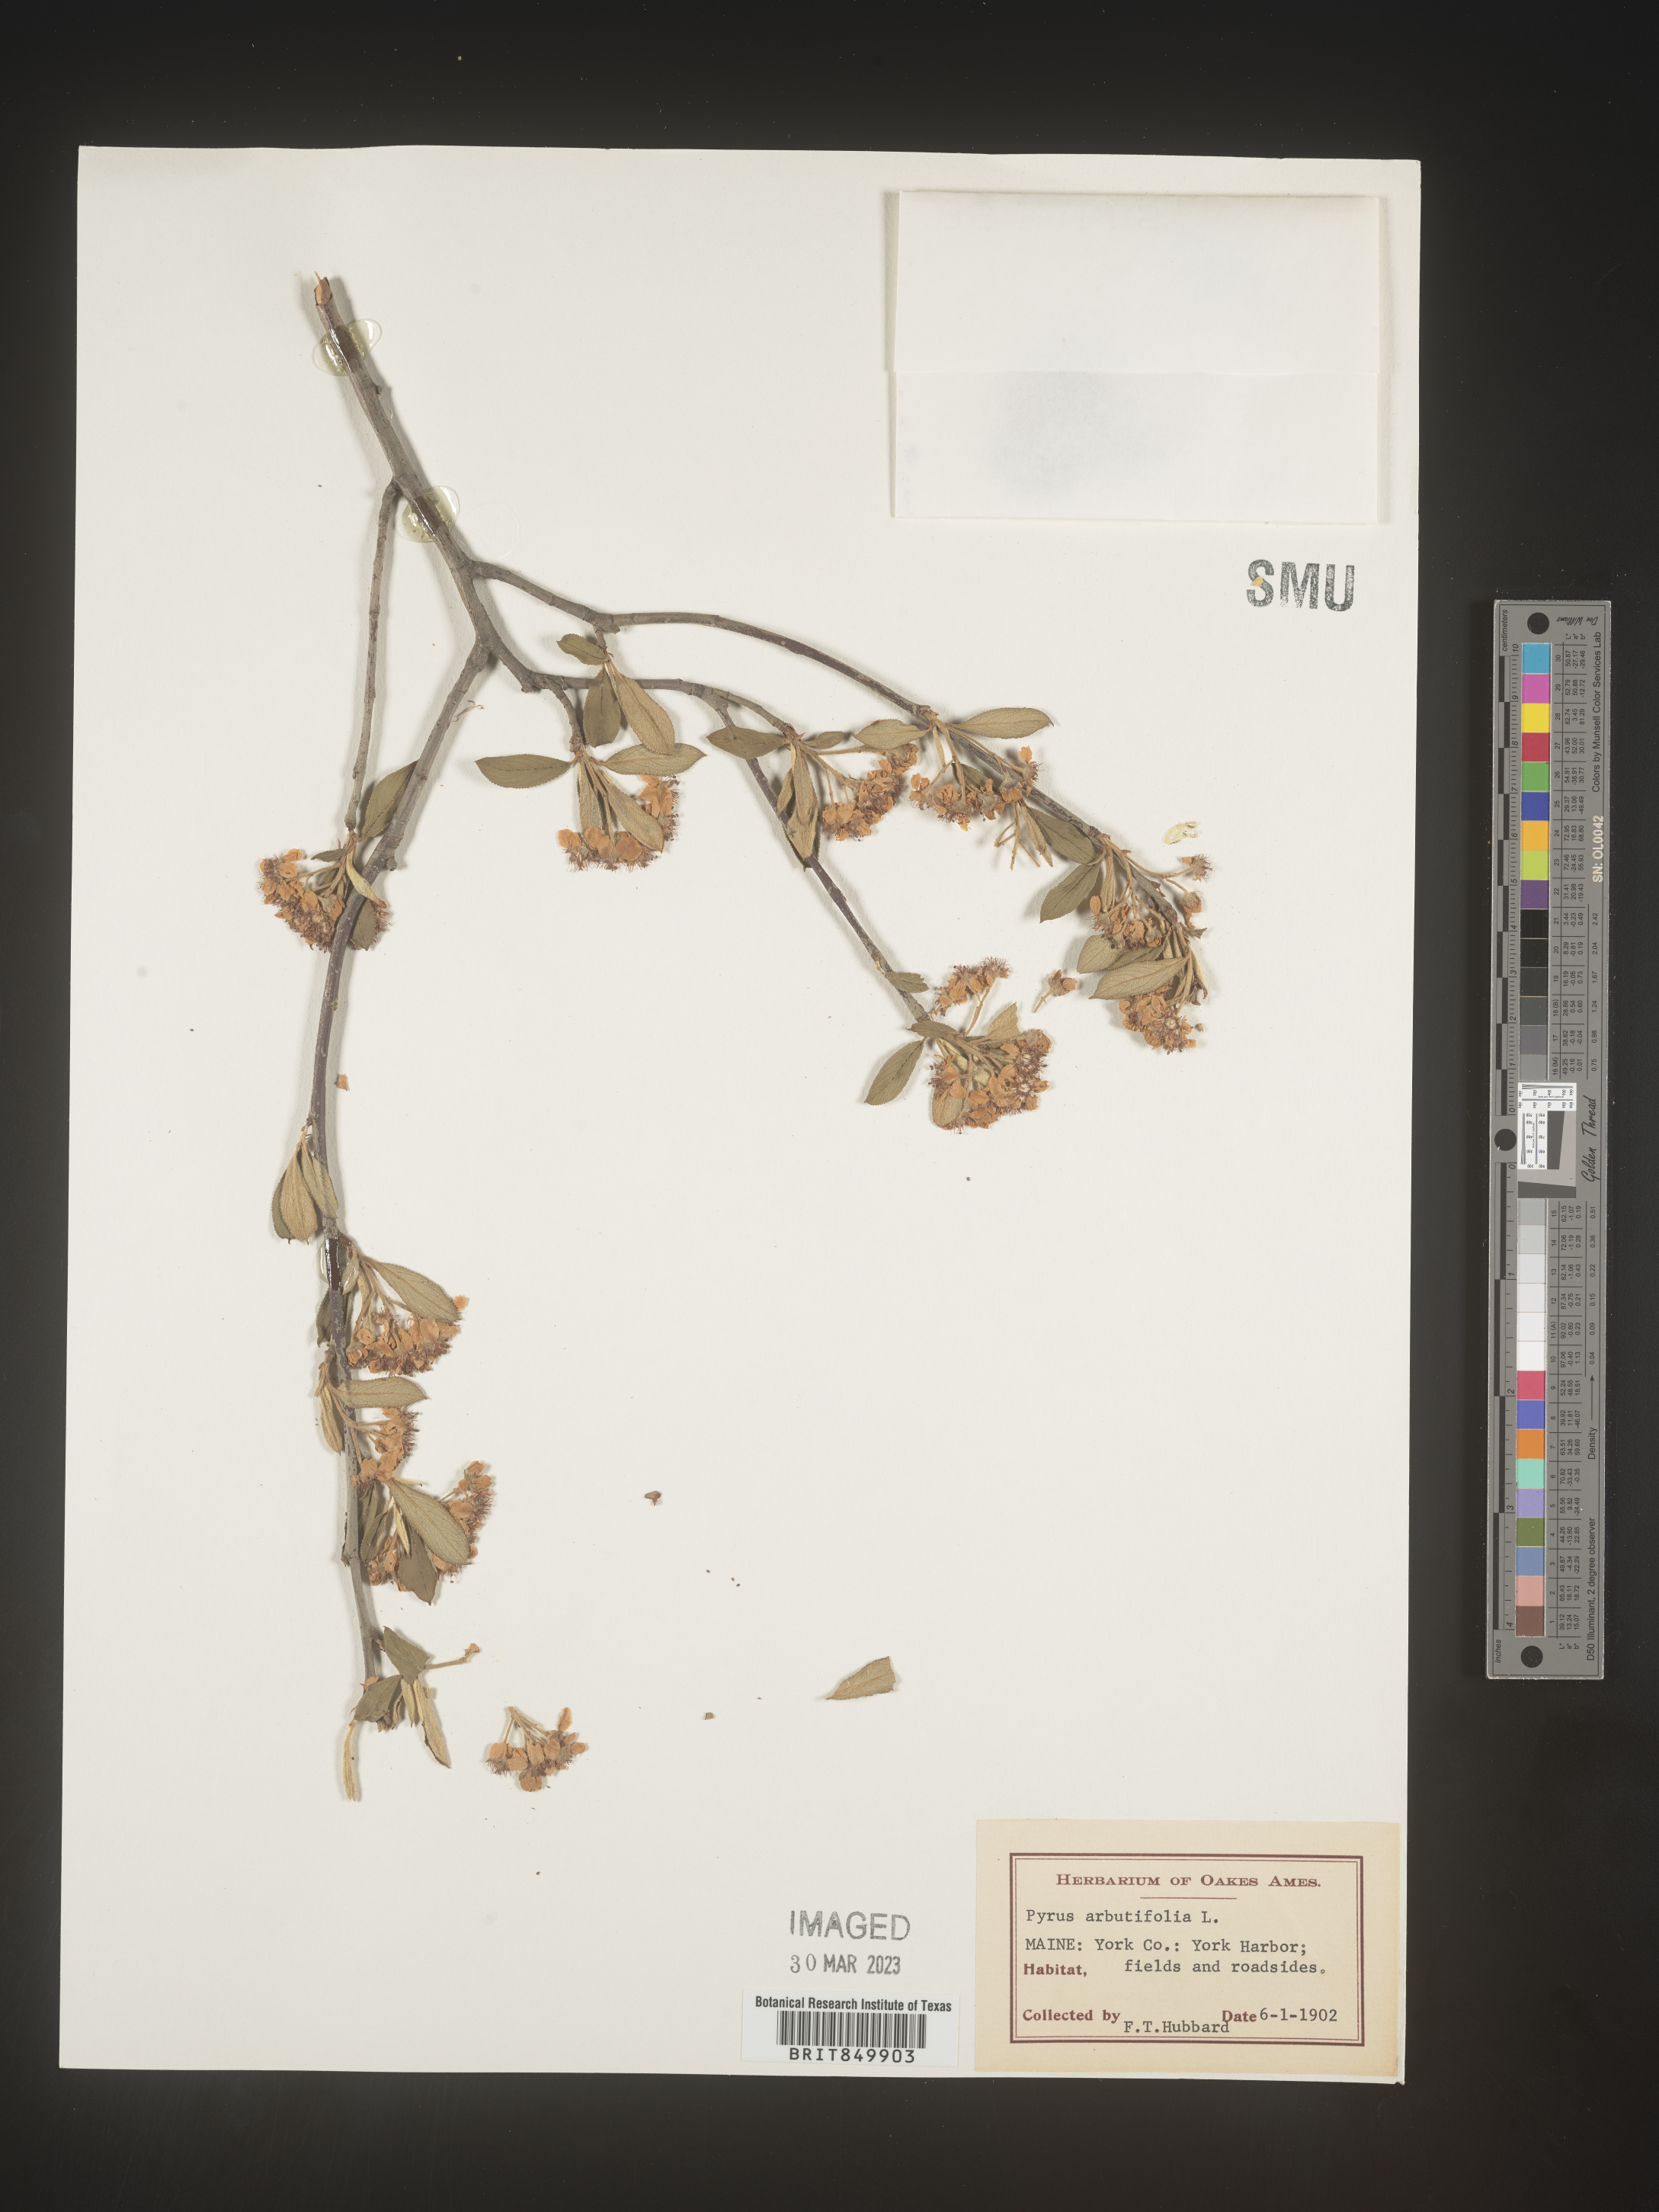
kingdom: Plantae
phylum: Tracheophyta
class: Magnoliopsida
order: Rosales
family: Rosaceae
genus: Pyrus
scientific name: Pyrus
